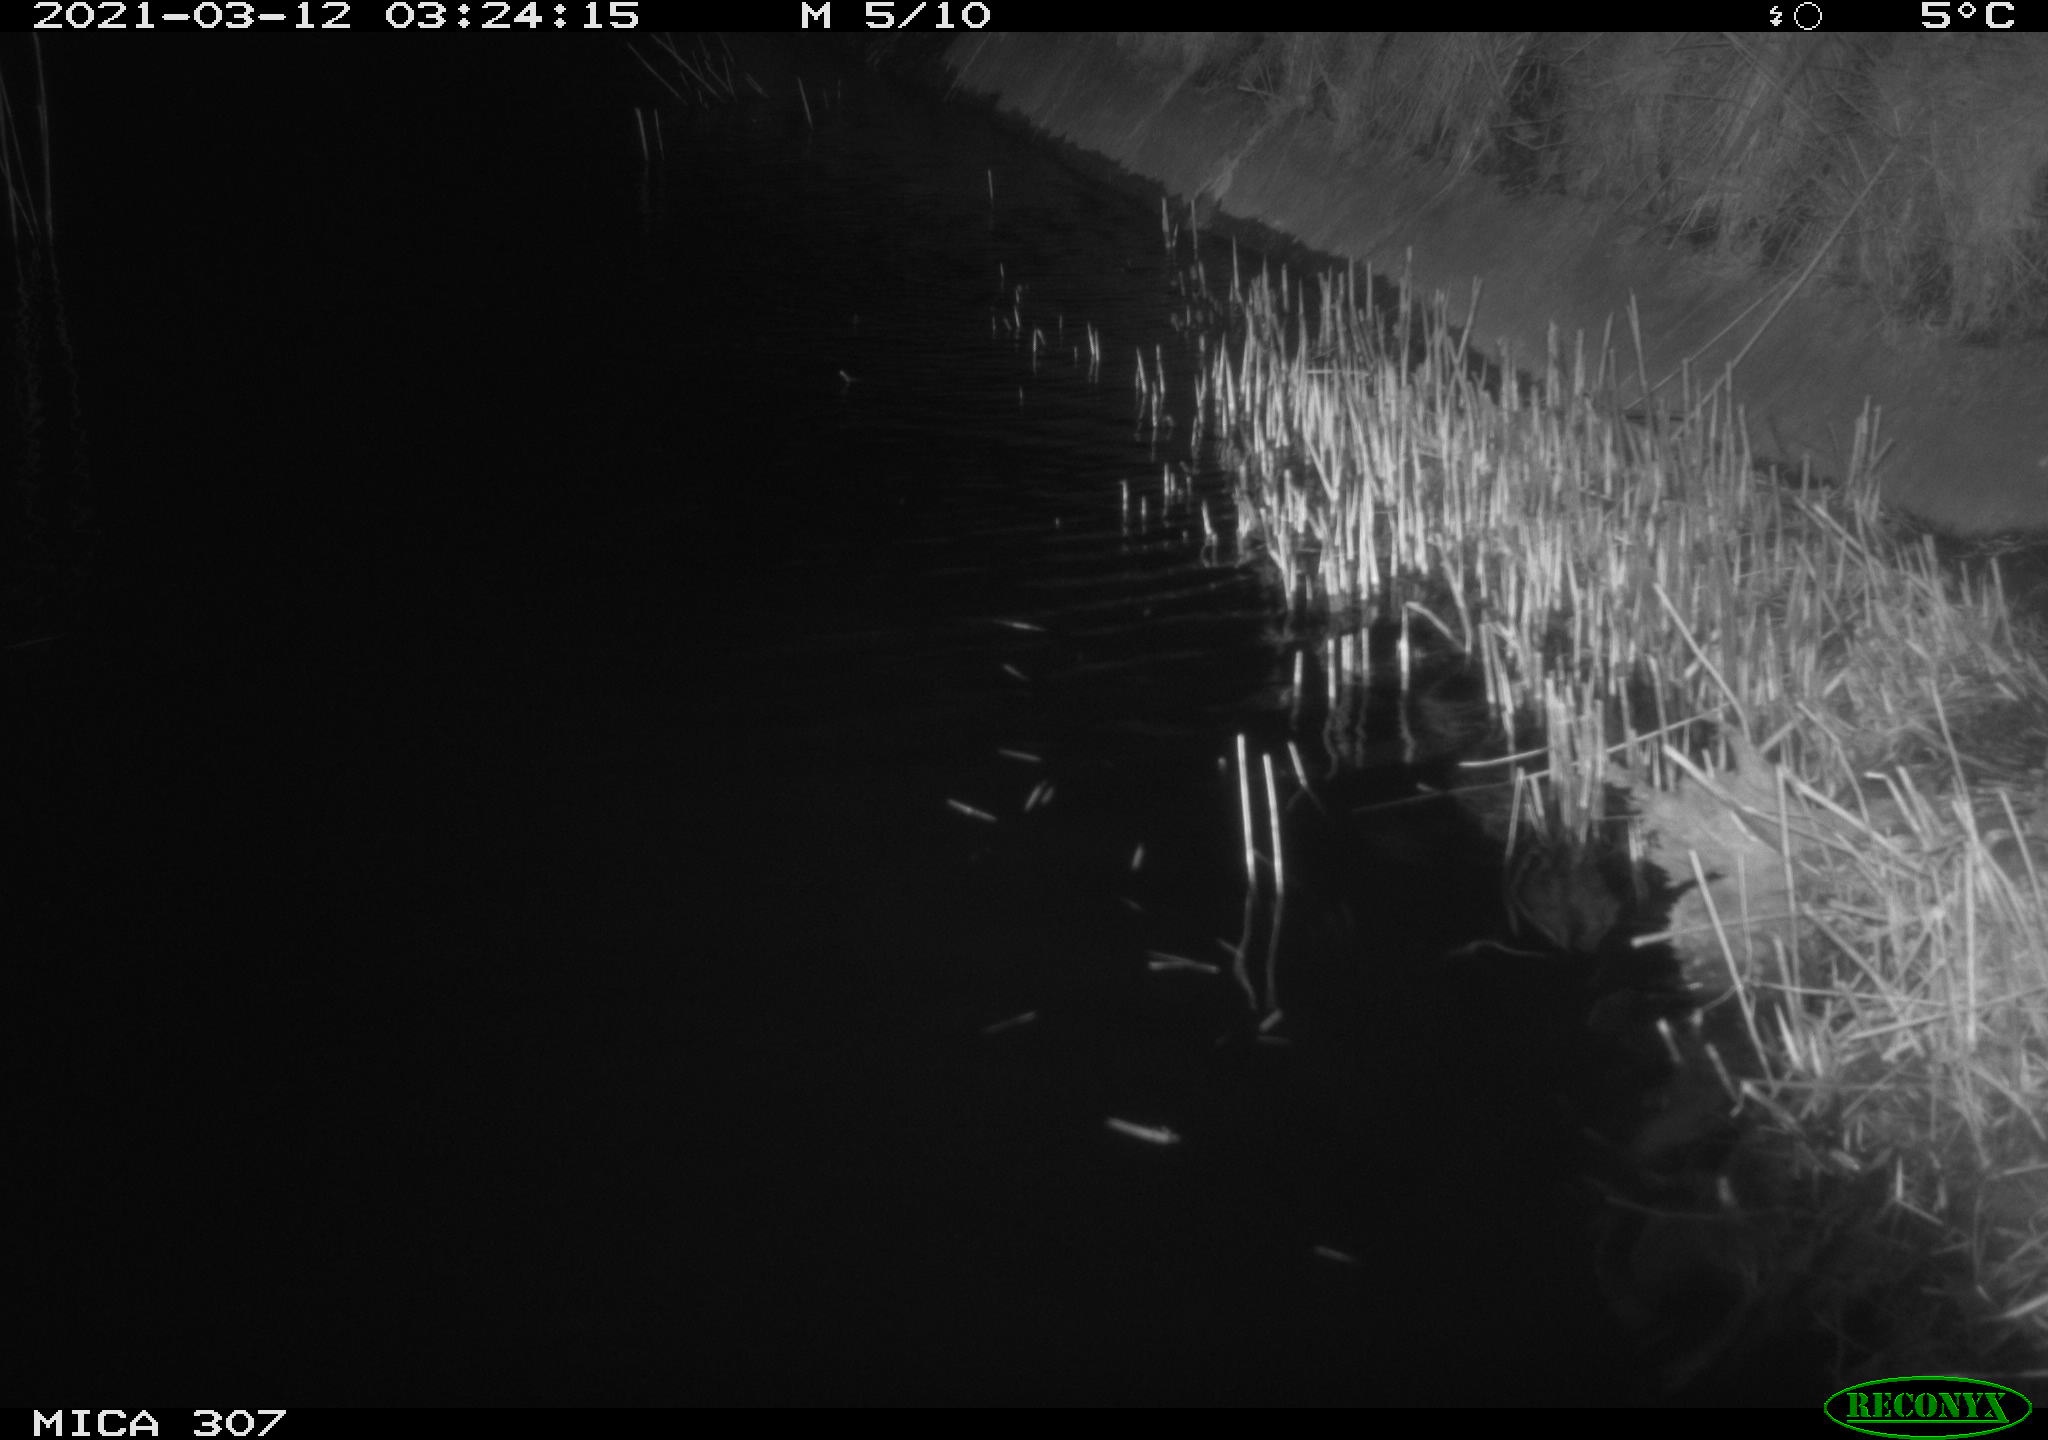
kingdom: Animalia
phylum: Chordata
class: Mammalia
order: Rodentia
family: Cricetidae
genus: Ondatra
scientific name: Ondatra zibethicus
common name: Muskrat
